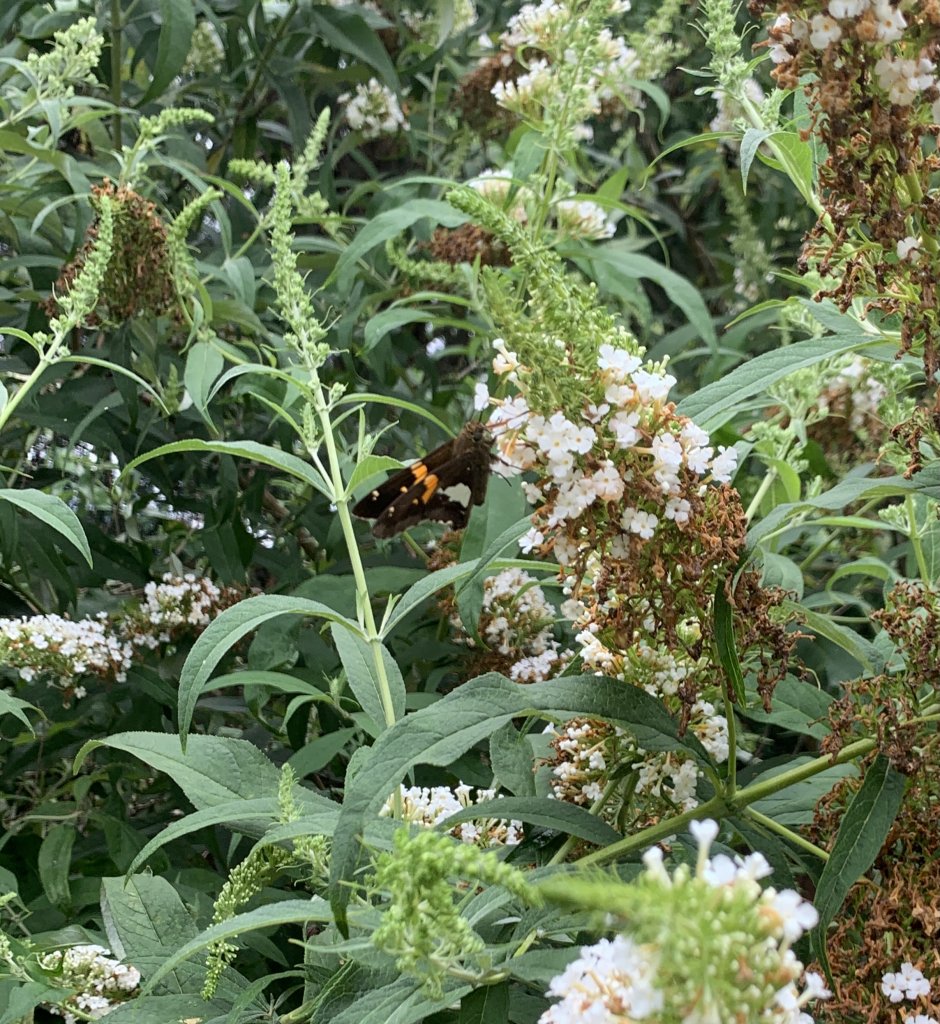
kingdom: Animalia
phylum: Arthropoda
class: Insecta
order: Lepidoptera
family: Hesperiidae
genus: Epargyreus
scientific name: Epargyreus clarus
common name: Silver-spotted Skipper
